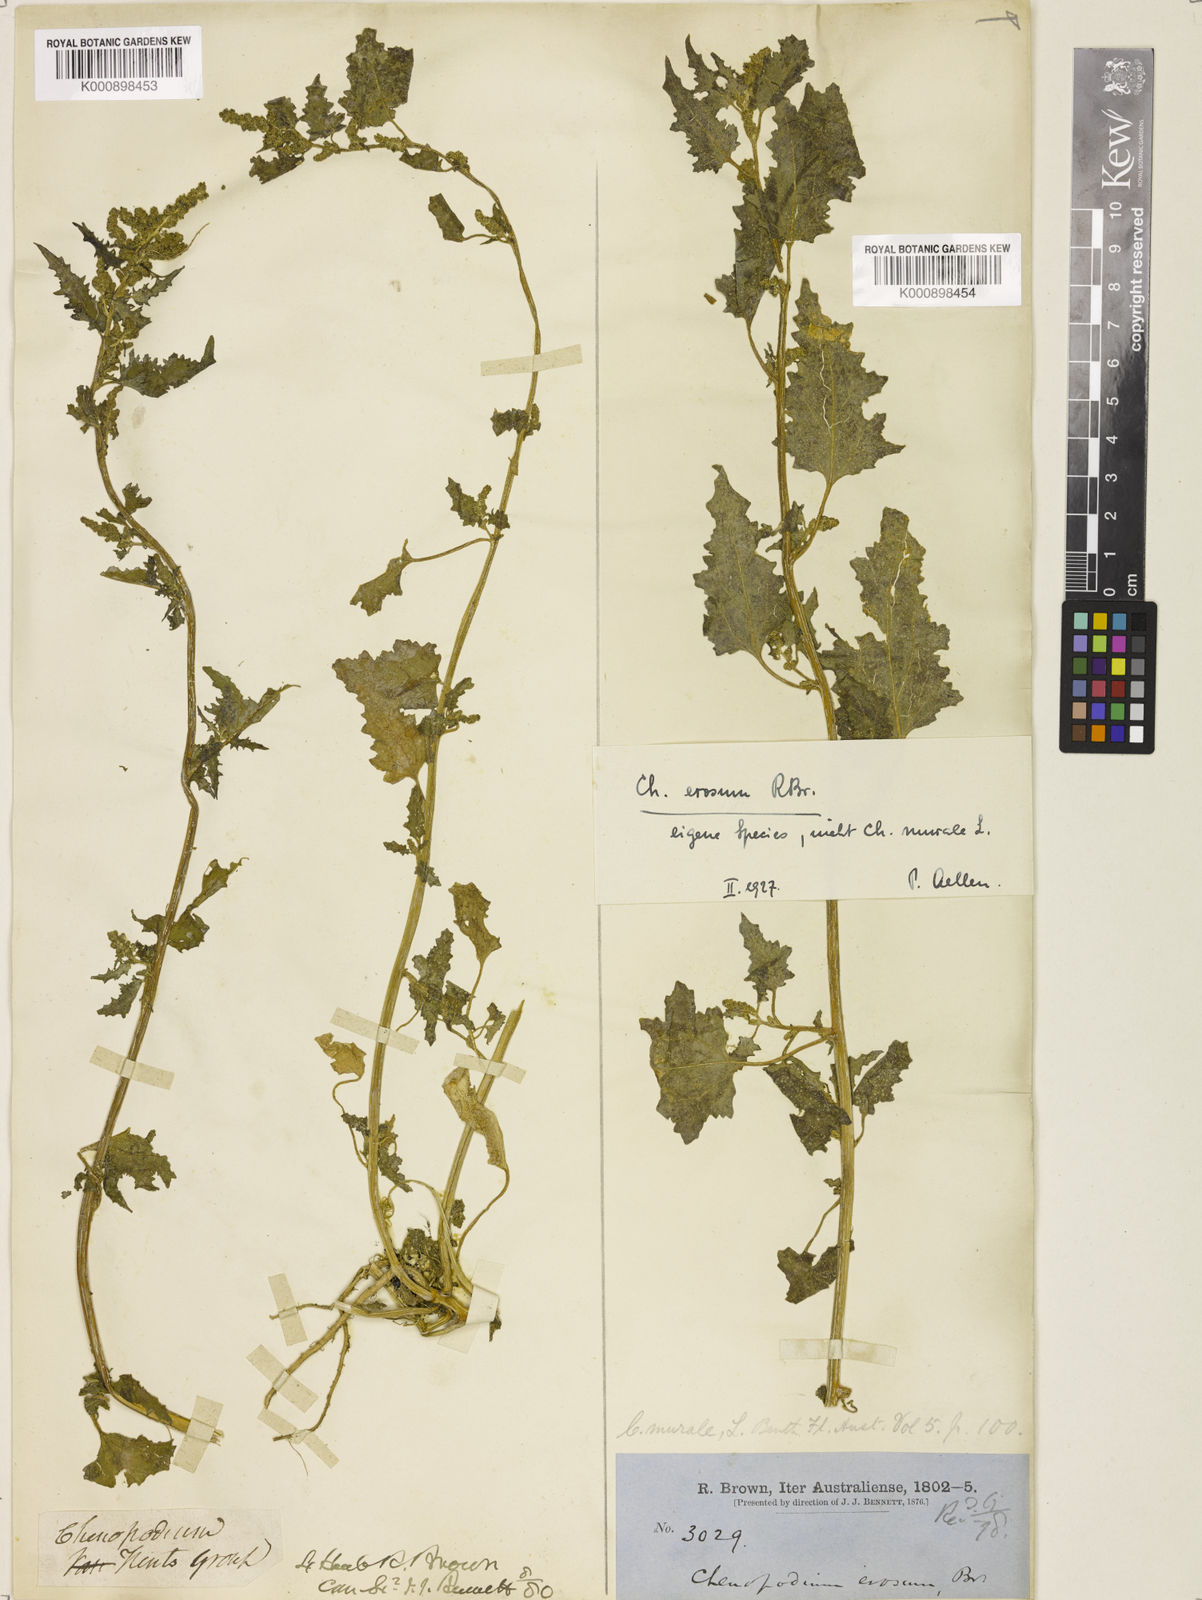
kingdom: Plantae
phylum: Tracheophyta
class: Magnoliopsida
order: Caryophyllales
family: Amaranthaceae
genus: Chenopodiastrum
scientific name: Chenopodiastrum erosum
